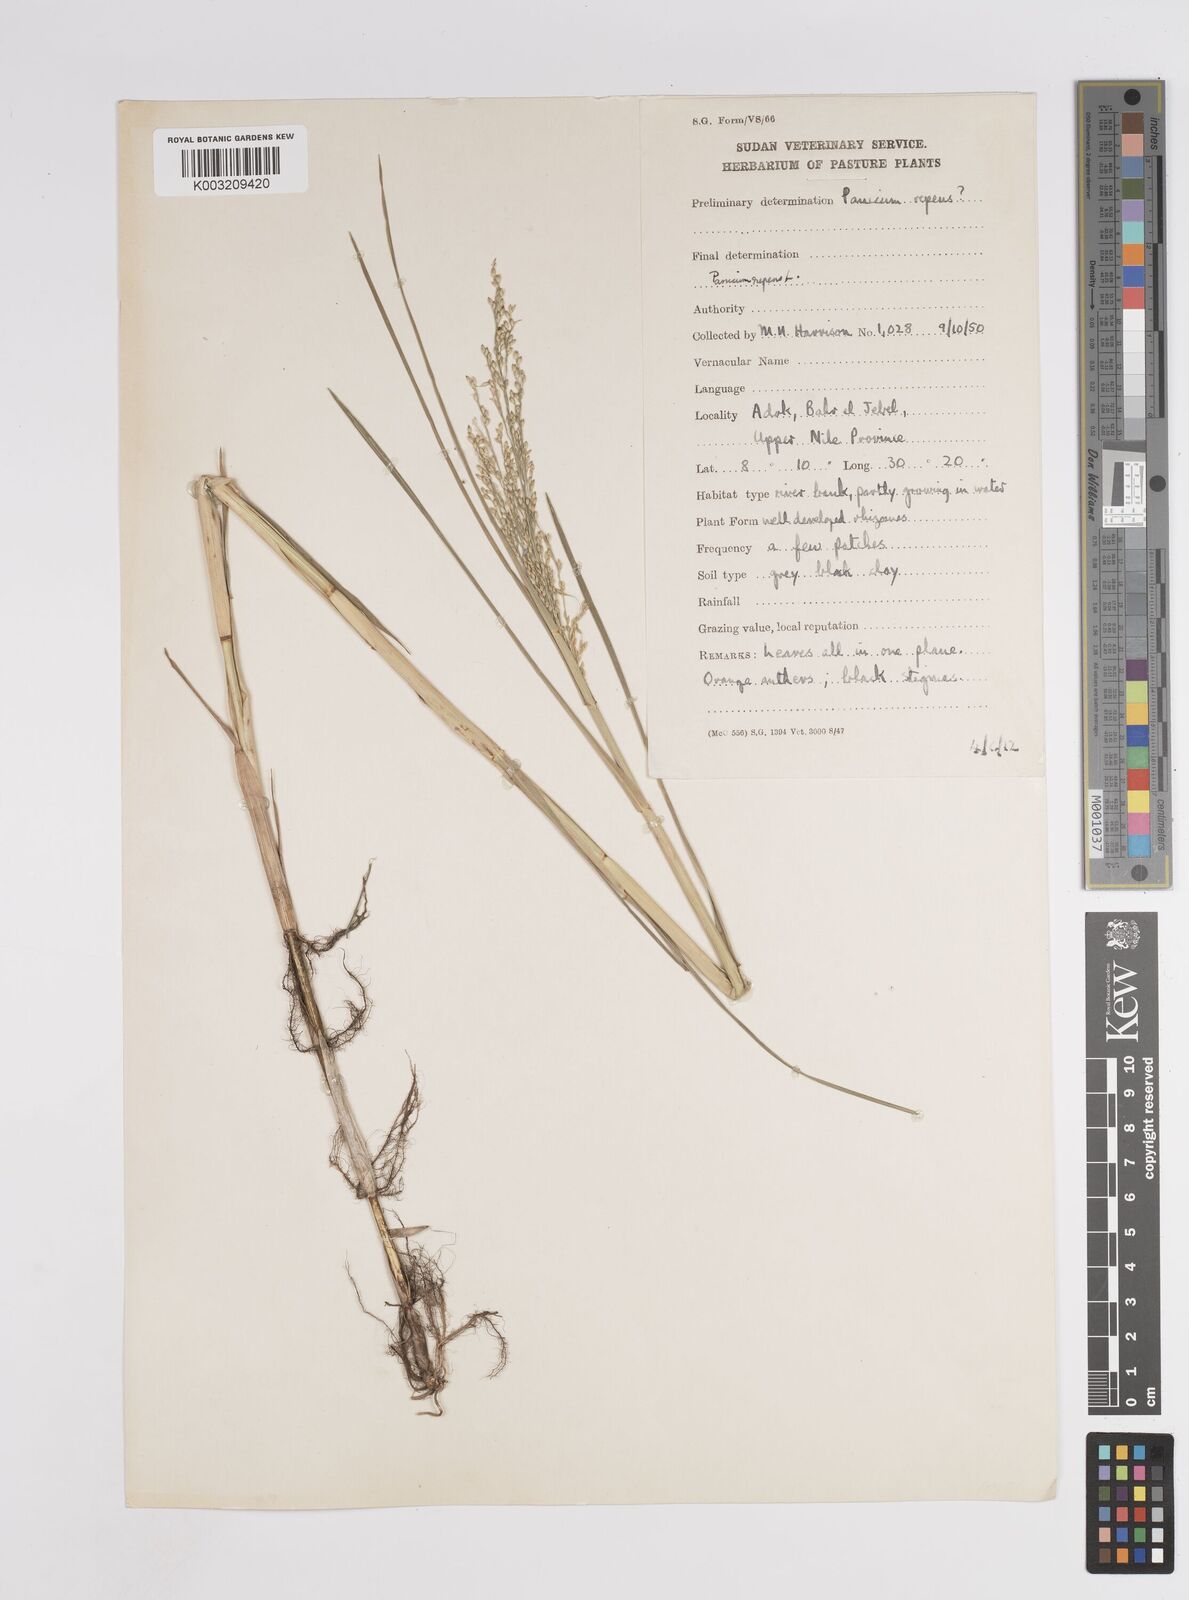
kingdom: Plantae
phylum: Tracheophyta
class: Liliopsida
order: Poales
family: Poaceae
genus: Panicum
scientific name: Panicum repens
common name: Torpedo grass
